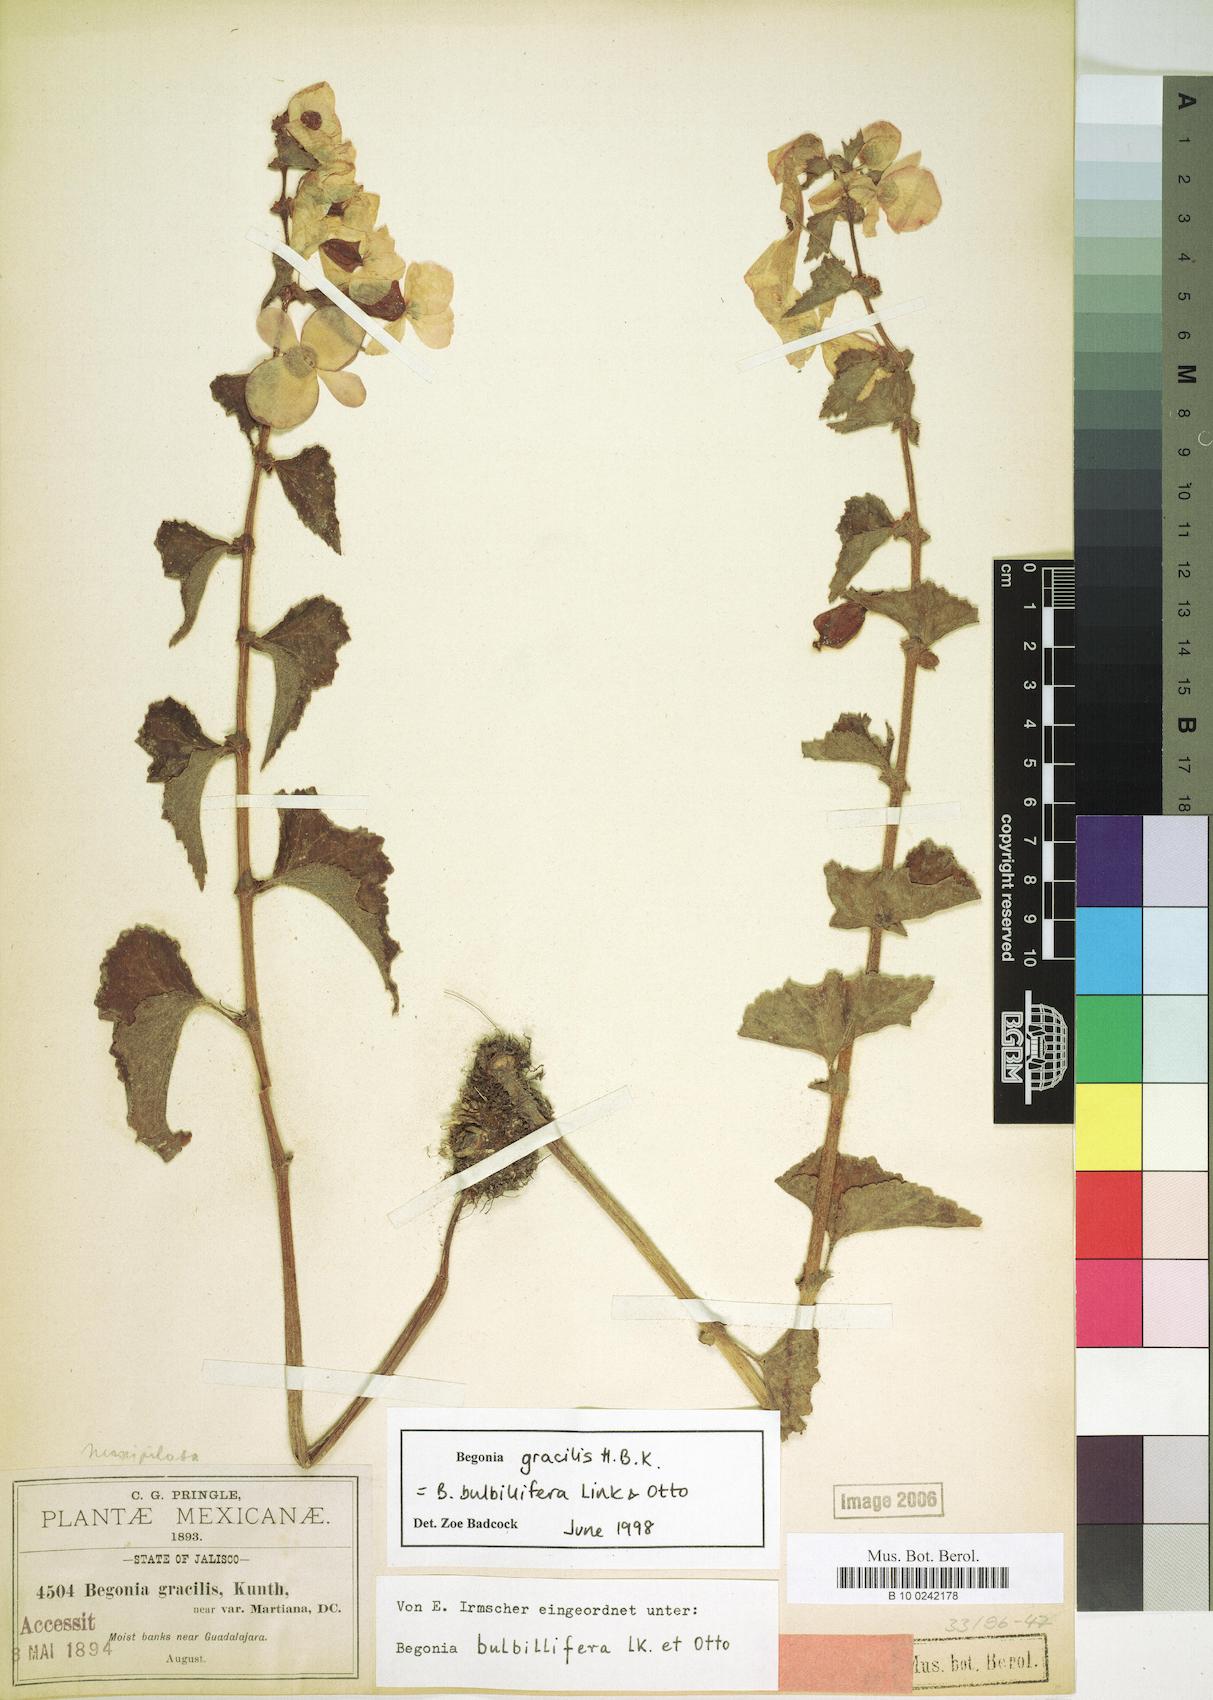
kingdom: Plantae
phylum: Tracheophyta
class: Magnoliopsida
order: Cucurbitales
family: Begoniaceae
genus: Begonia
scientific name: Begonia gracilis
